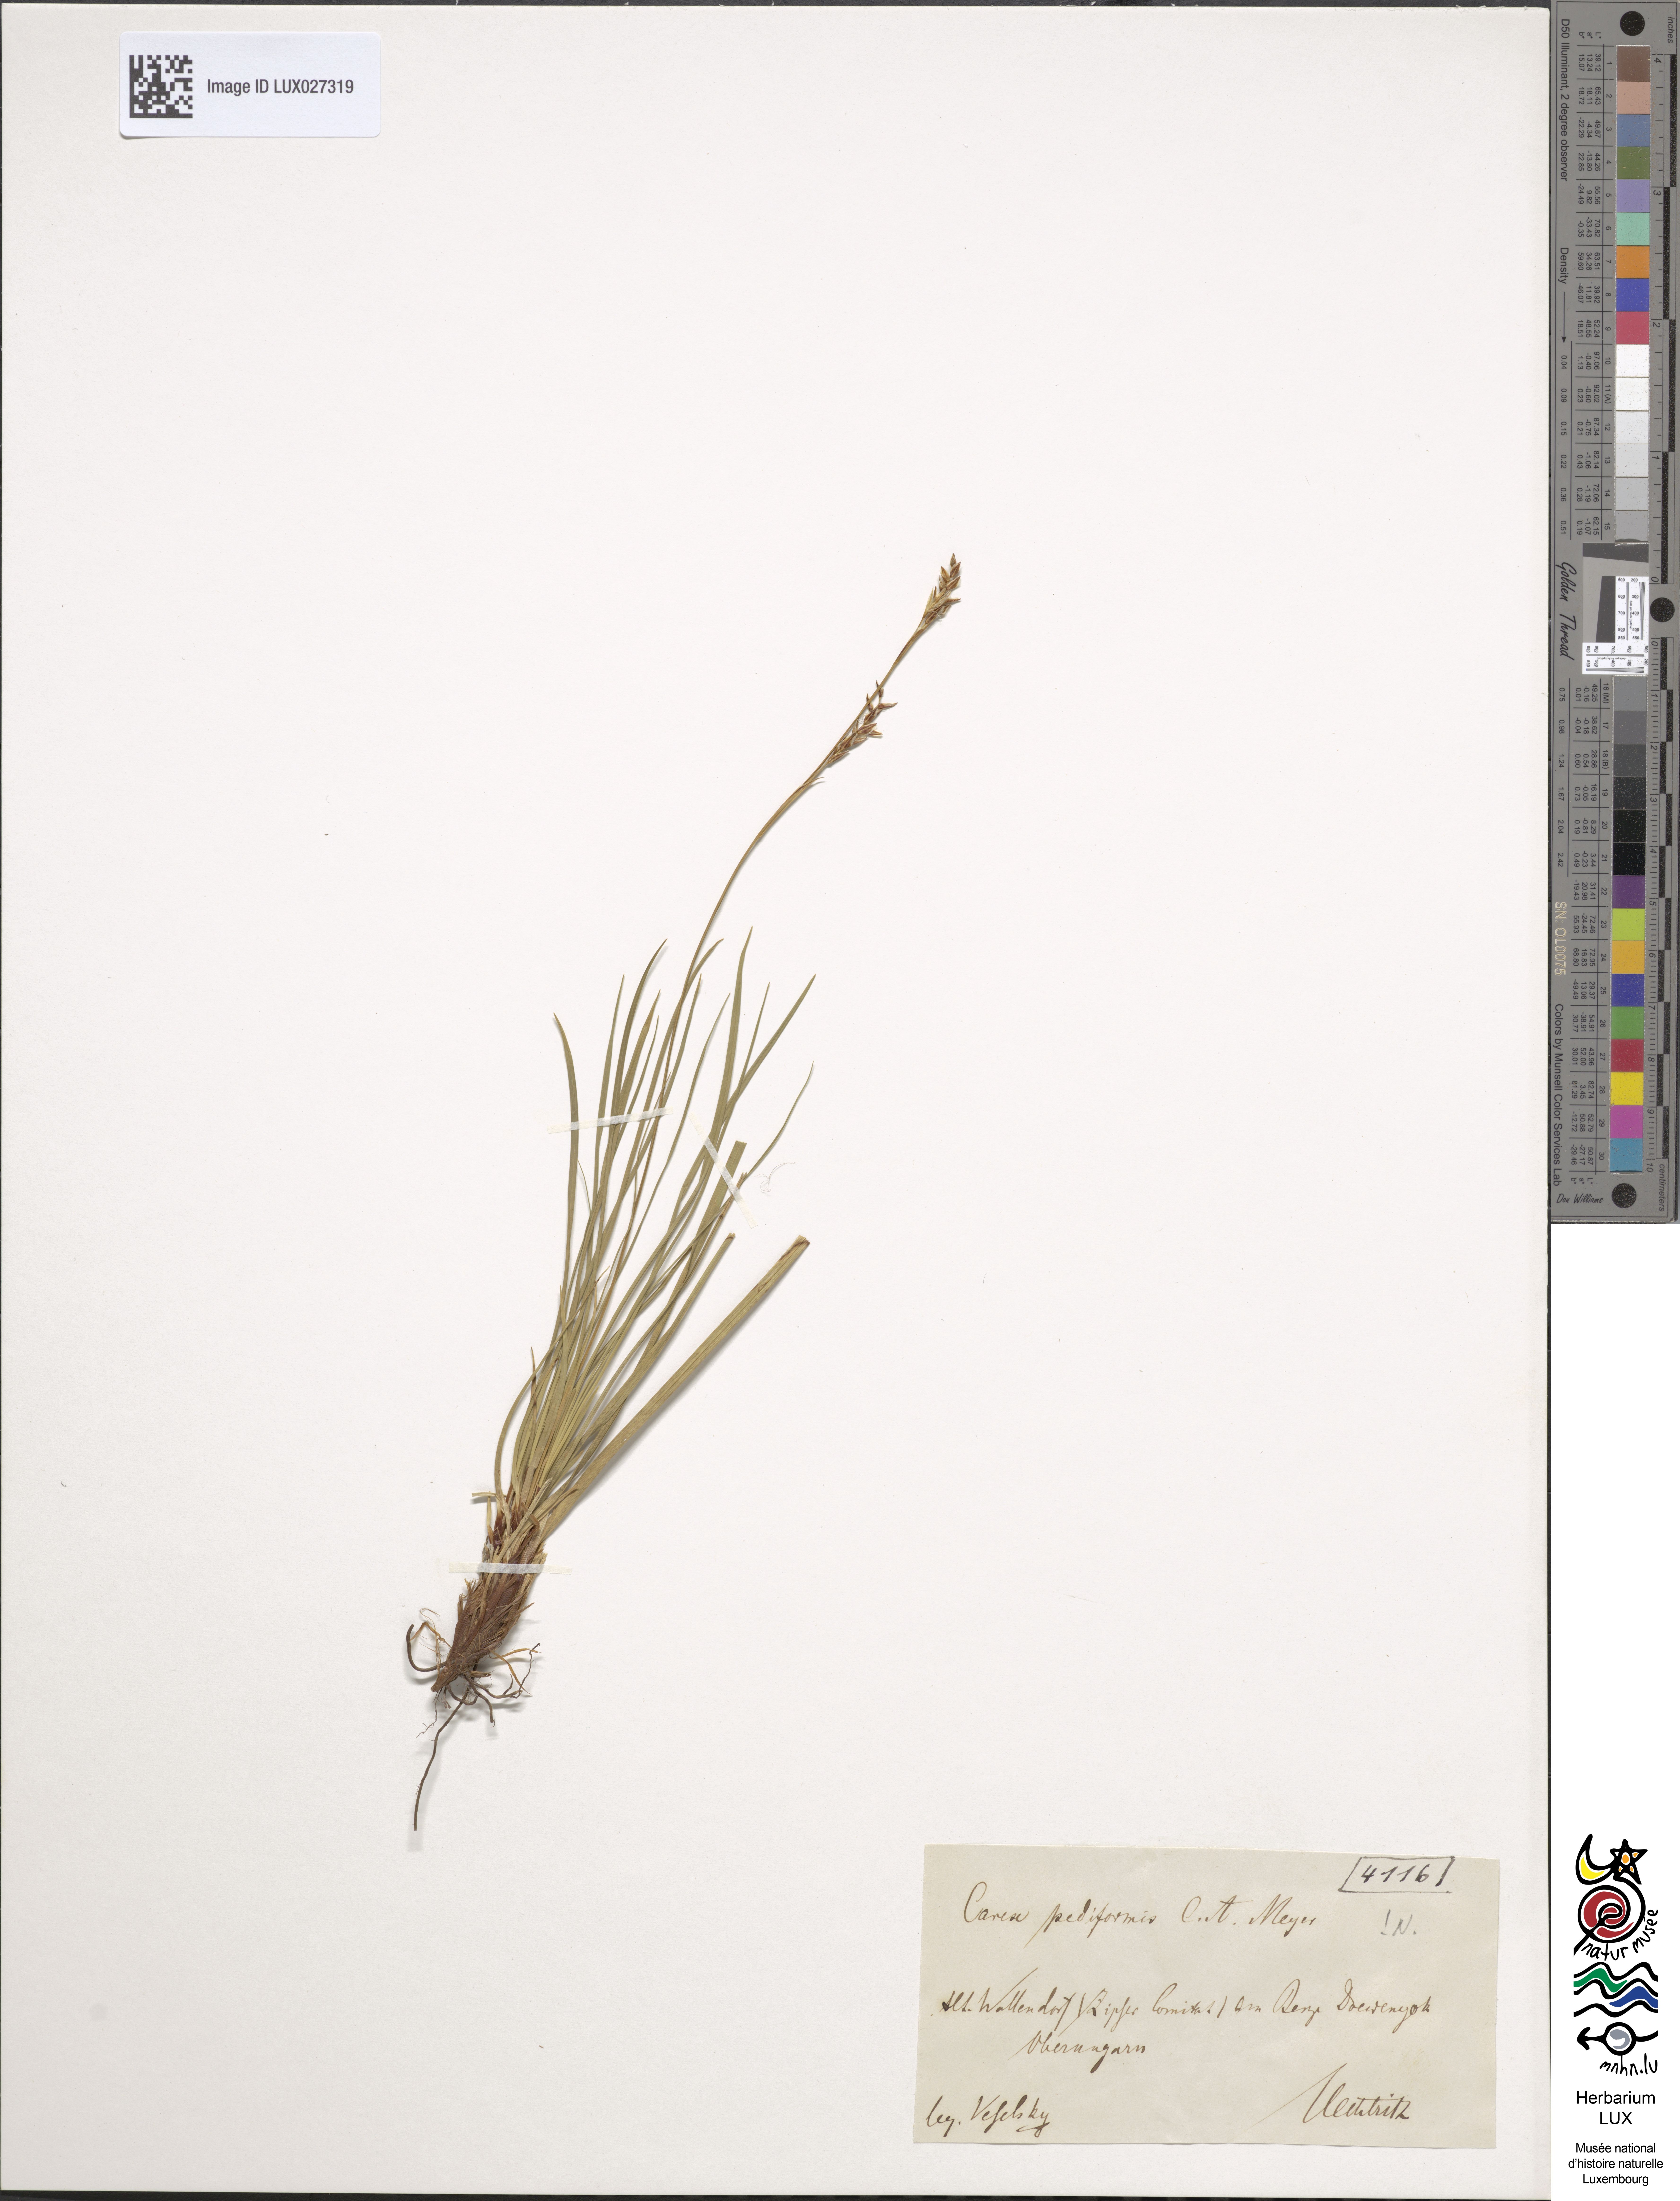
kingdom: Plantae
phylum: Tracheophyta
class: Liliopsida
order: Poales
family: Cyperaceae
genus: Carex
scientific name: Carex pediformis
